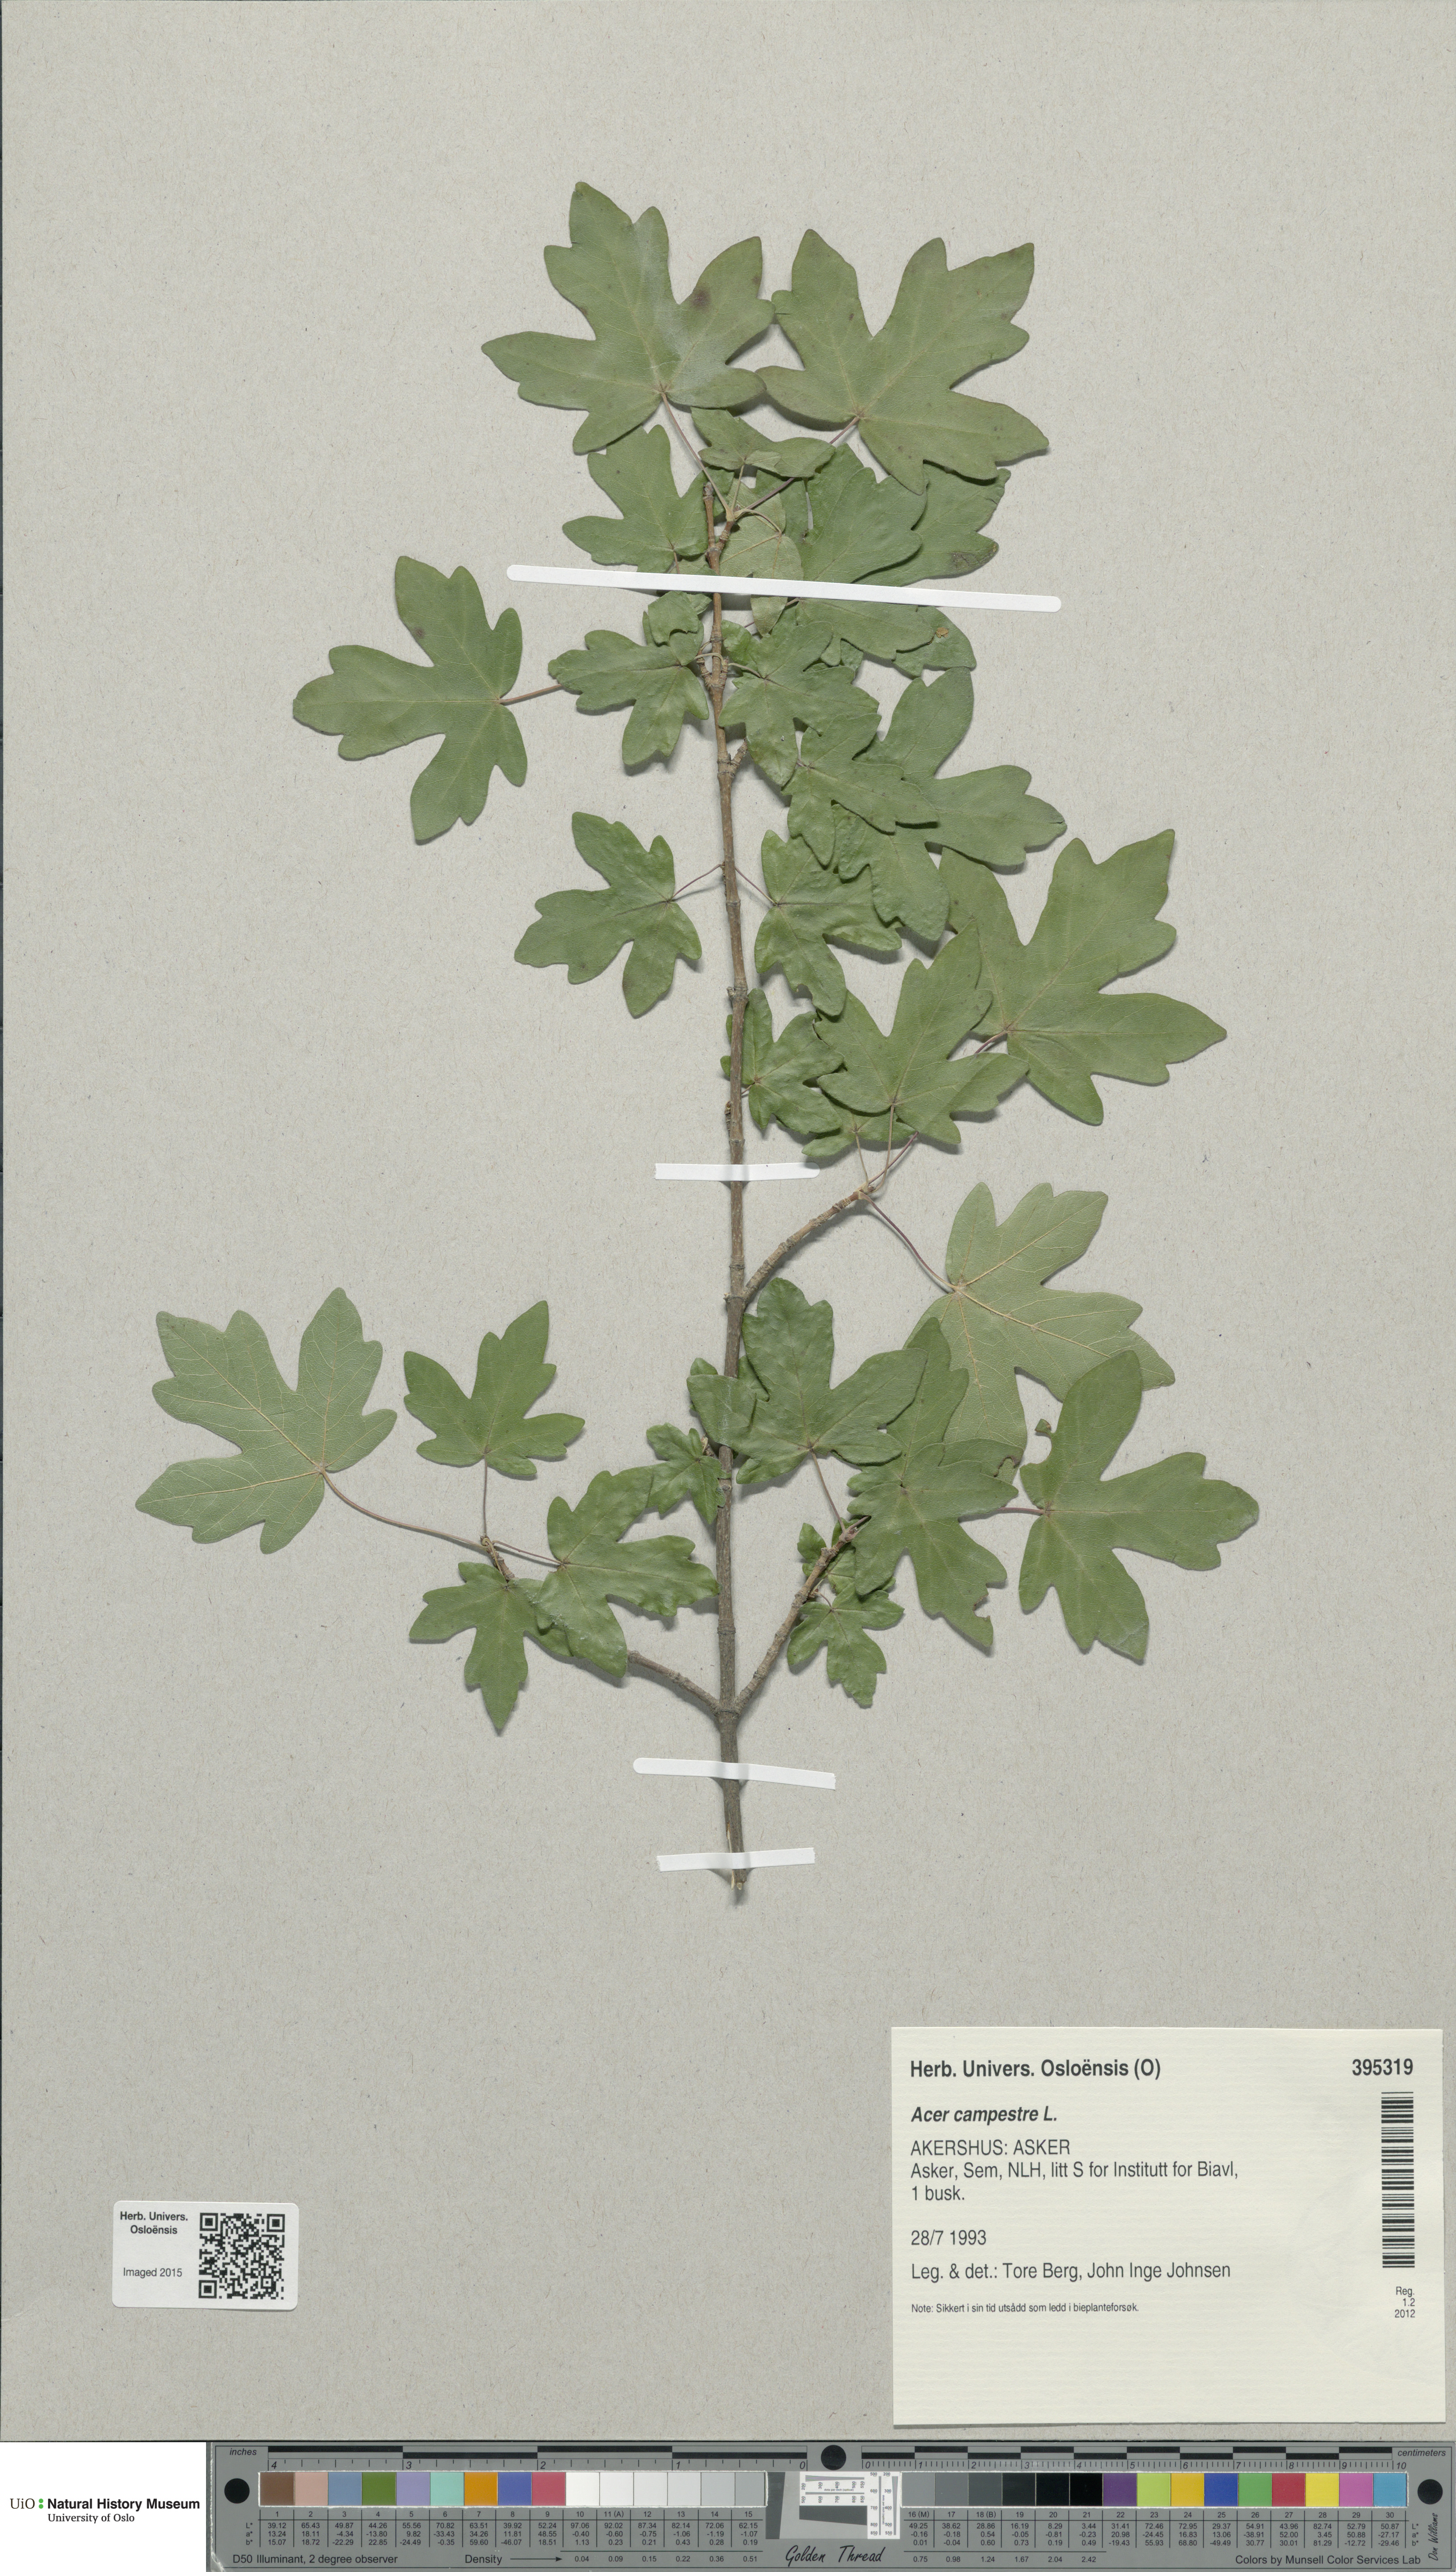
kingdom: Plantae
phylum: Tracheophyta
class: Magnoliopsida
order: Sapindales
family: Sapindaceae
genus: Acer
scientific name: Acer campestre
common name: Field maple
